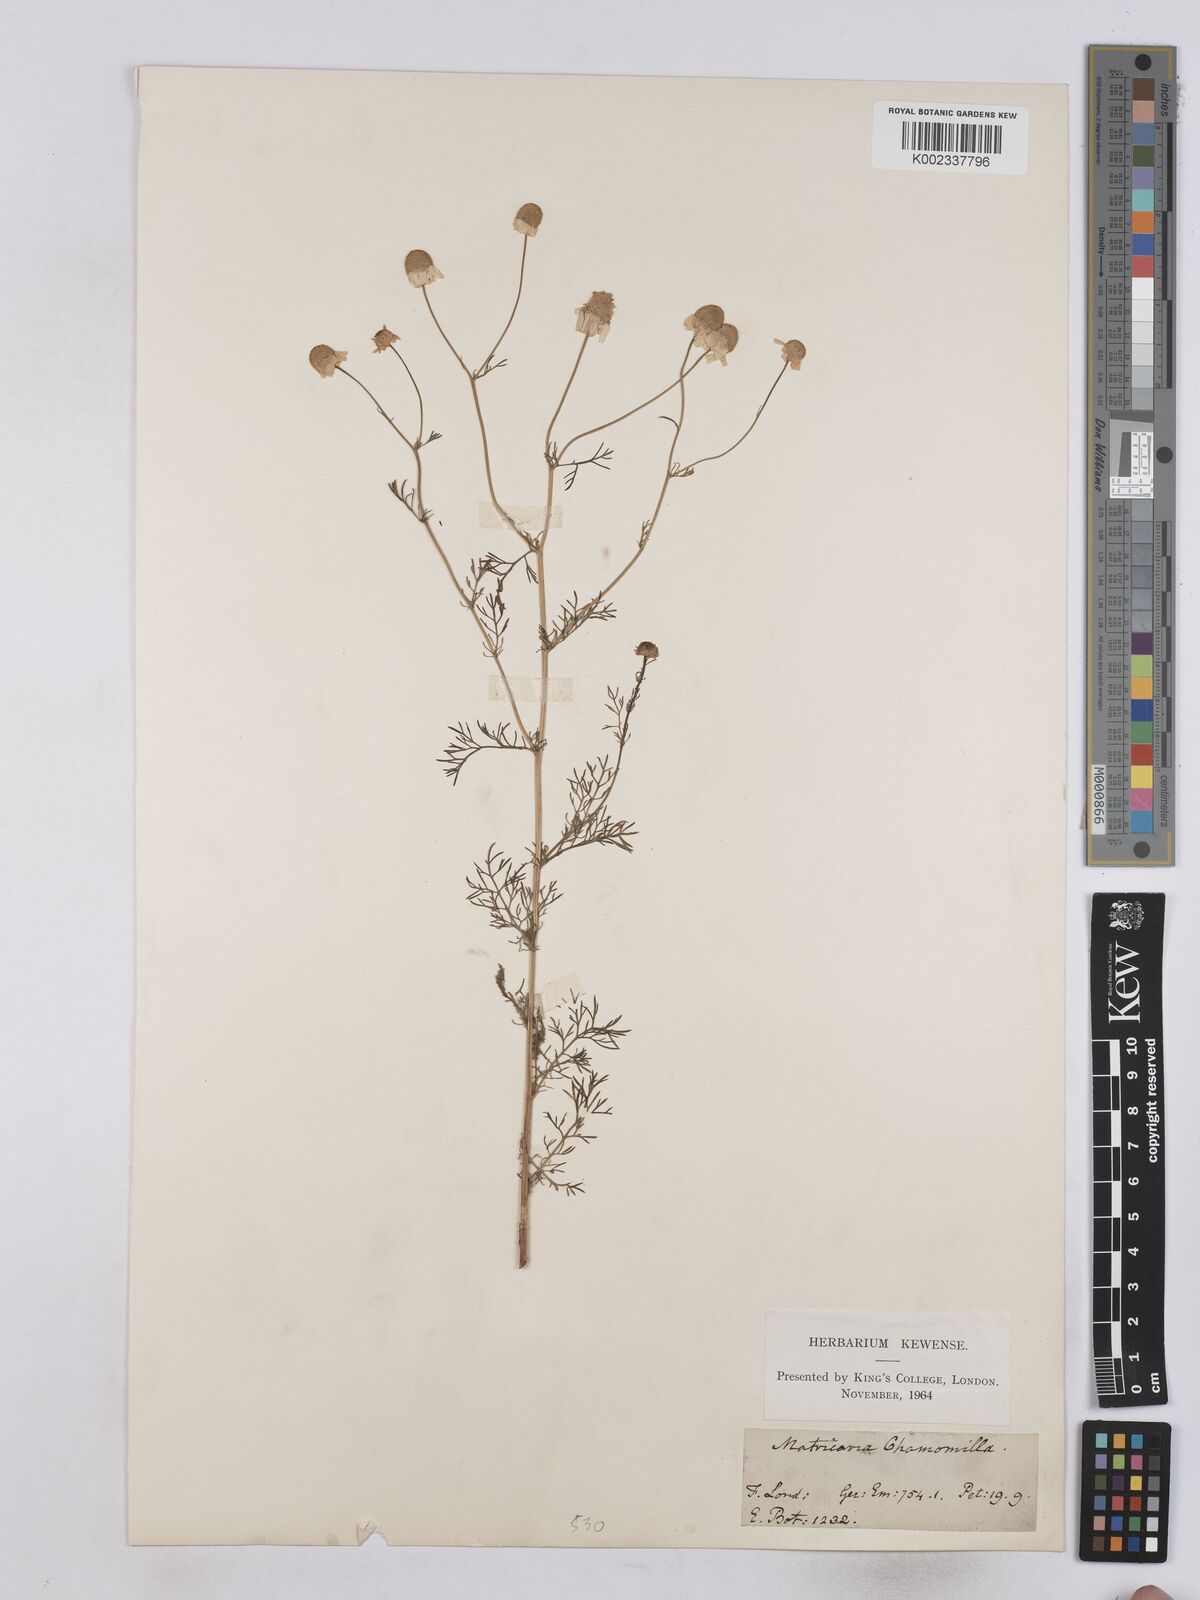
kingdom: Plantae
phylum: Tracheophyta
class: Magnoliopsida
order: Asterales
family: Asteraceae
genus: Matricaria
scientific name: Matricaria chamomilla
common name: Scented mayweed
